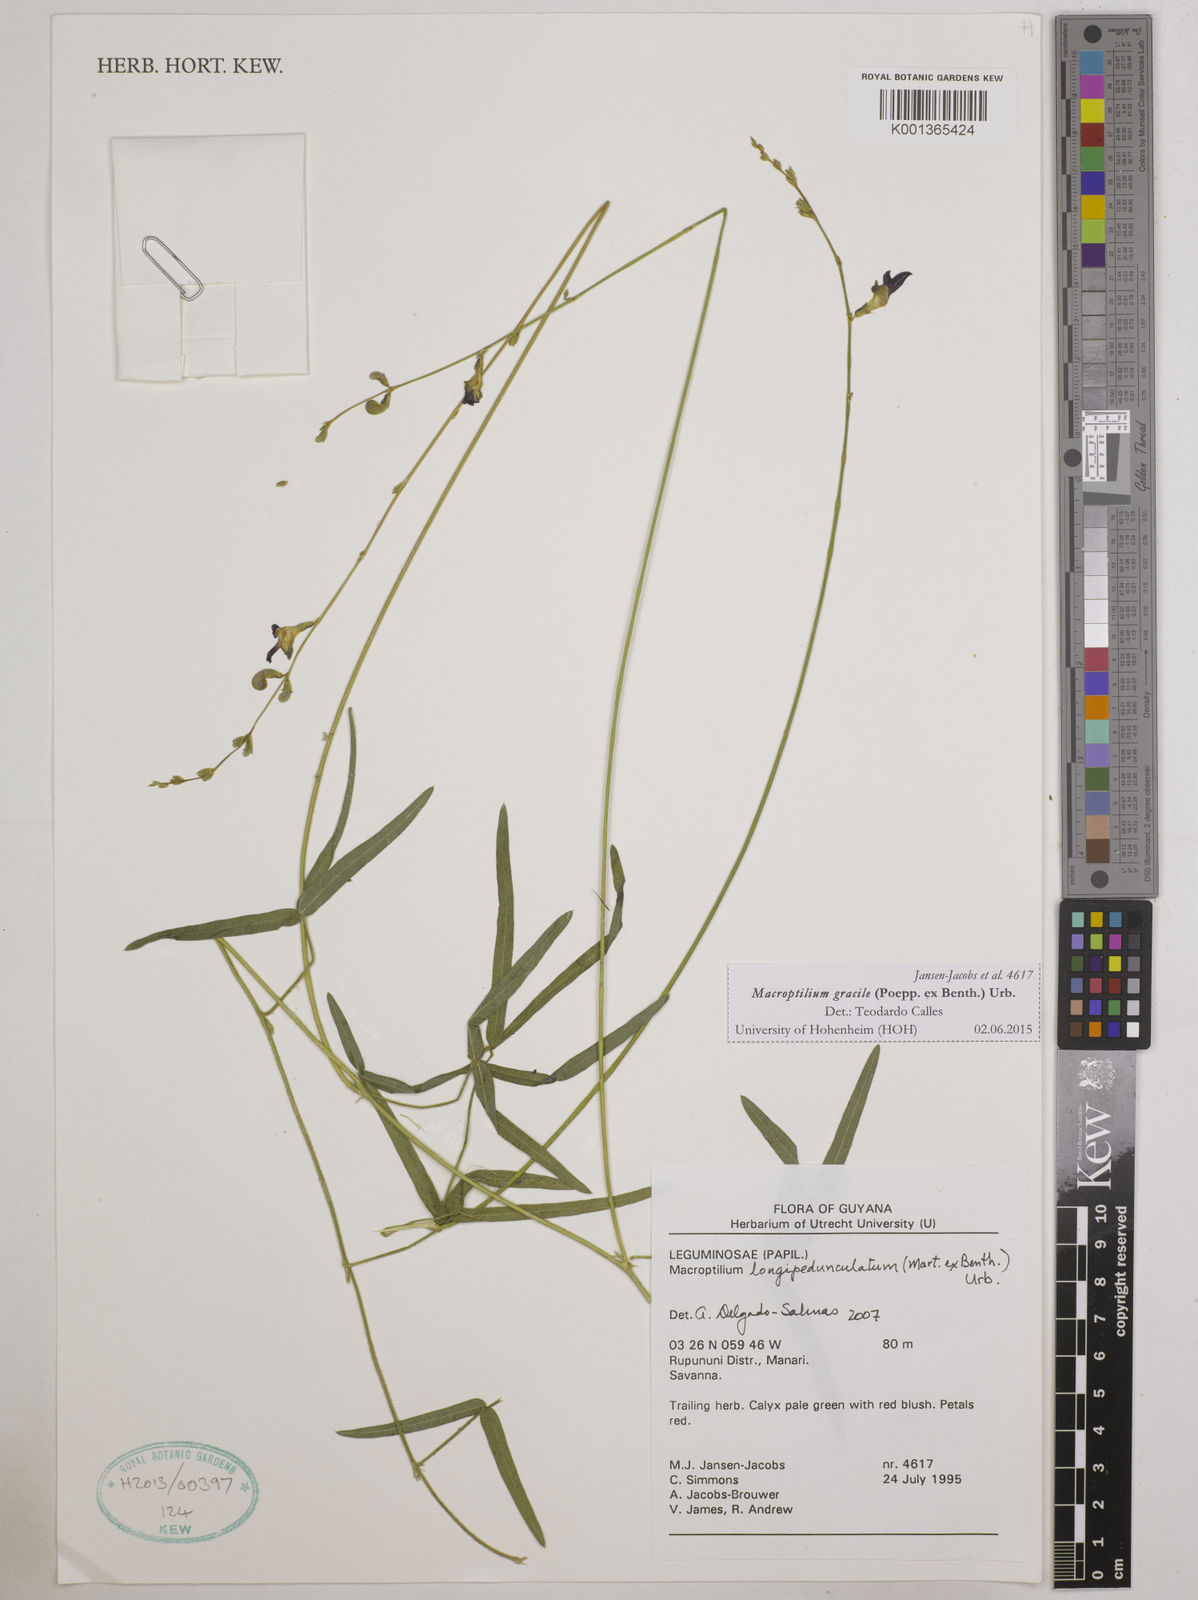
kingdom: Plantae
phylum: Tracheophyta
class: Magnoliopsida
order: Fabales
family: Fabaceae
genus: Macroptilium
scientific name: Macroptilium gracile
